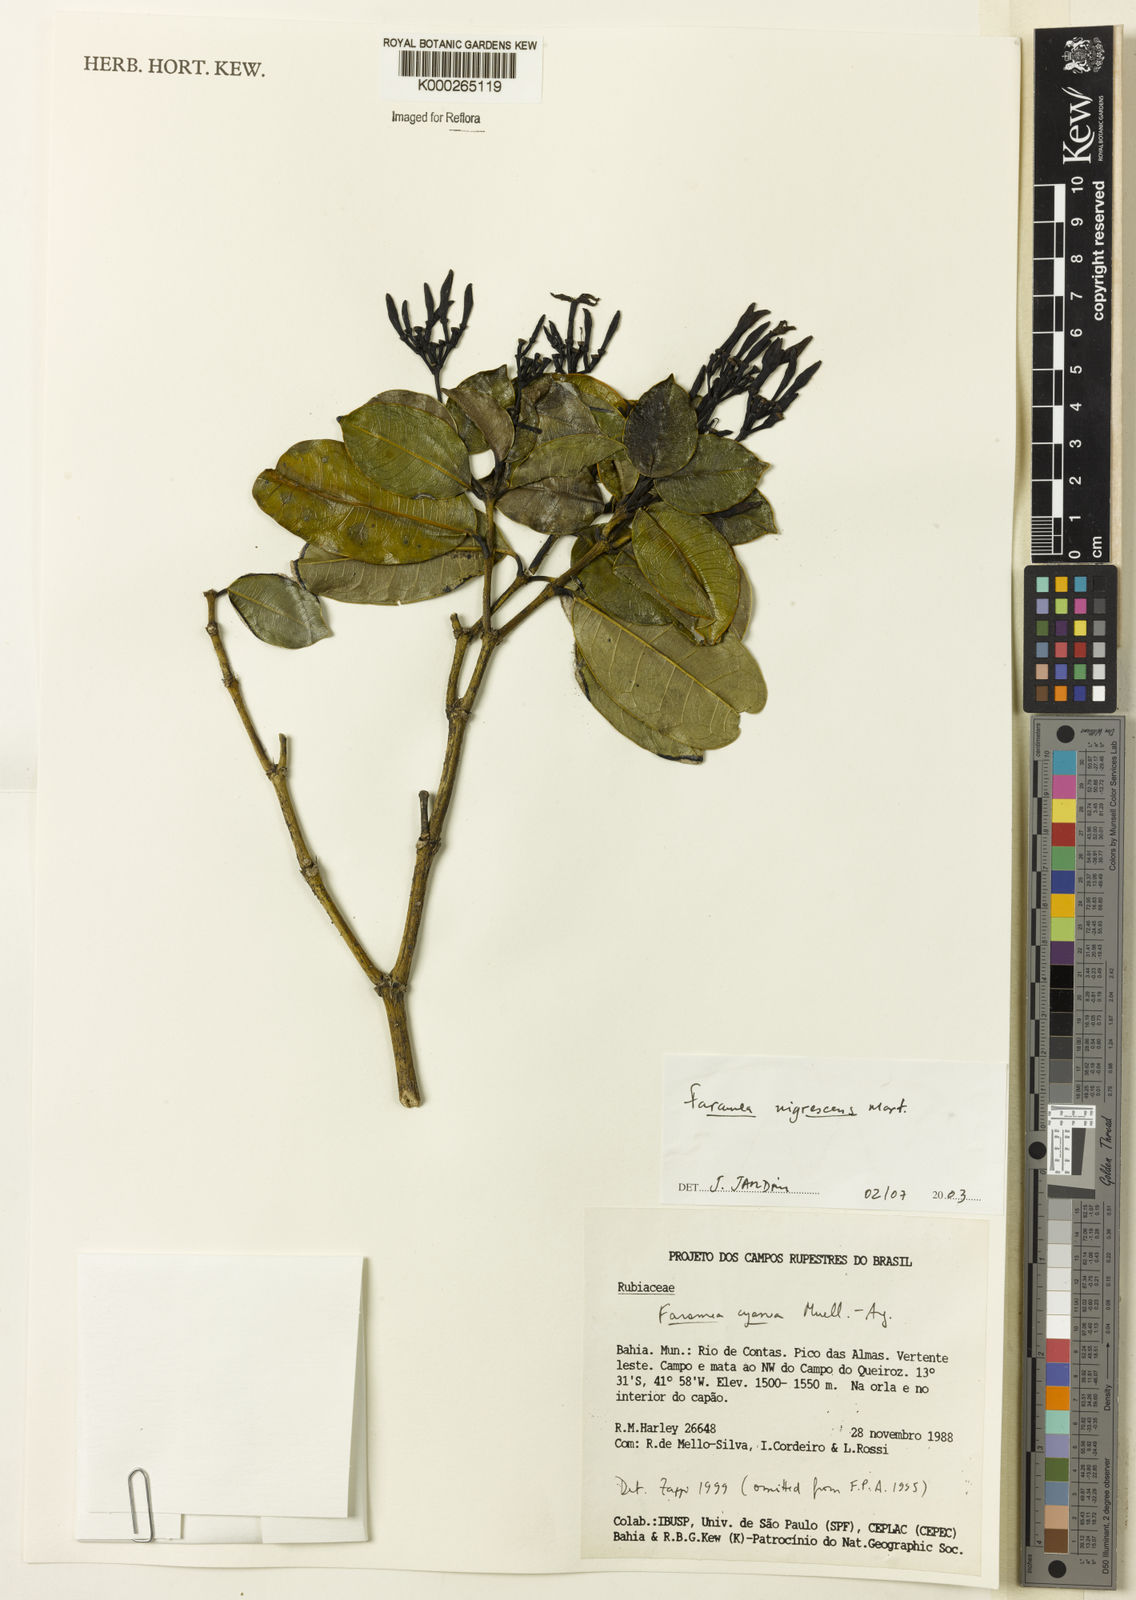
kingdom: Plantae
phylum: Tracheophyta
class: Magnoliopsida
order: Gentianales
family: Rubiaceae
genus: Faramea
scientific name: Faramea nigrescens
